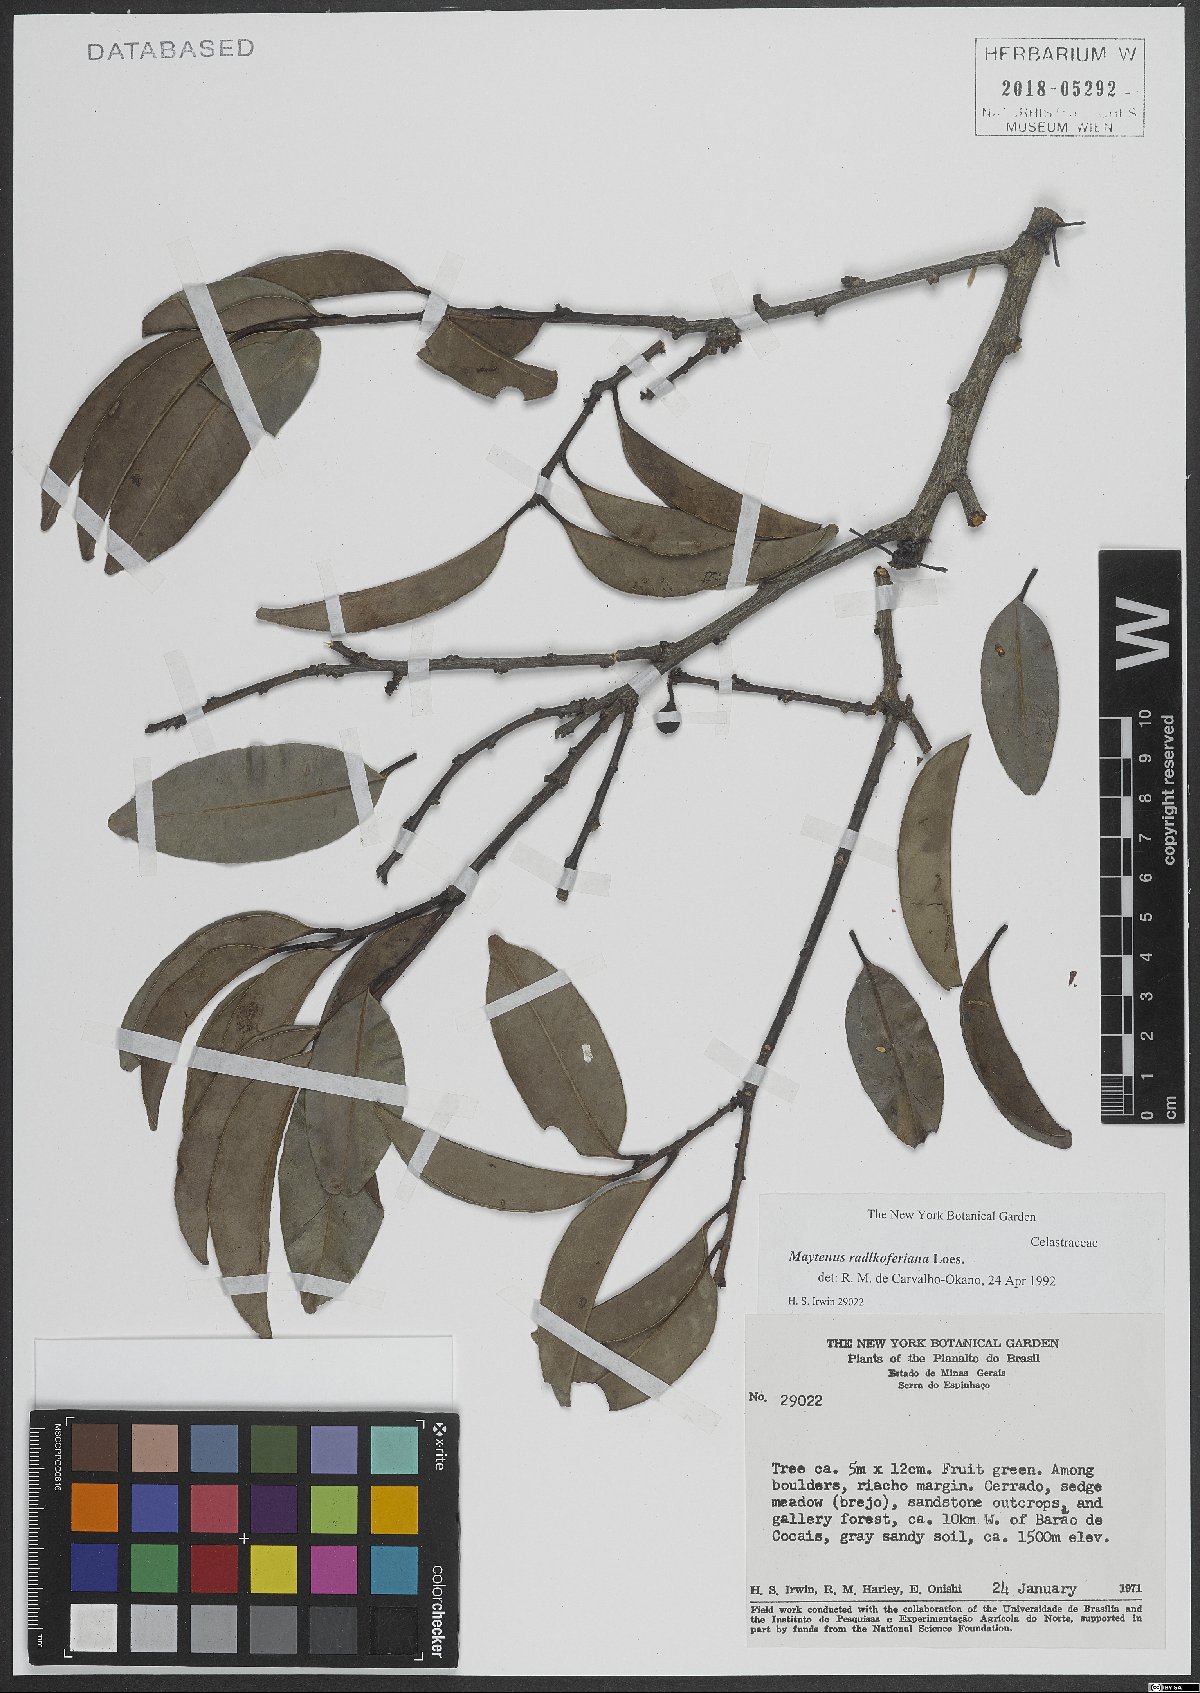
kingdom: Plantae
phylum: Tracheophyta
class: Magnoliopsida
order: Celastrales
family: Celastraceae
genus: Monteverdia
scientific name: Monteverdia radlkoferiana
